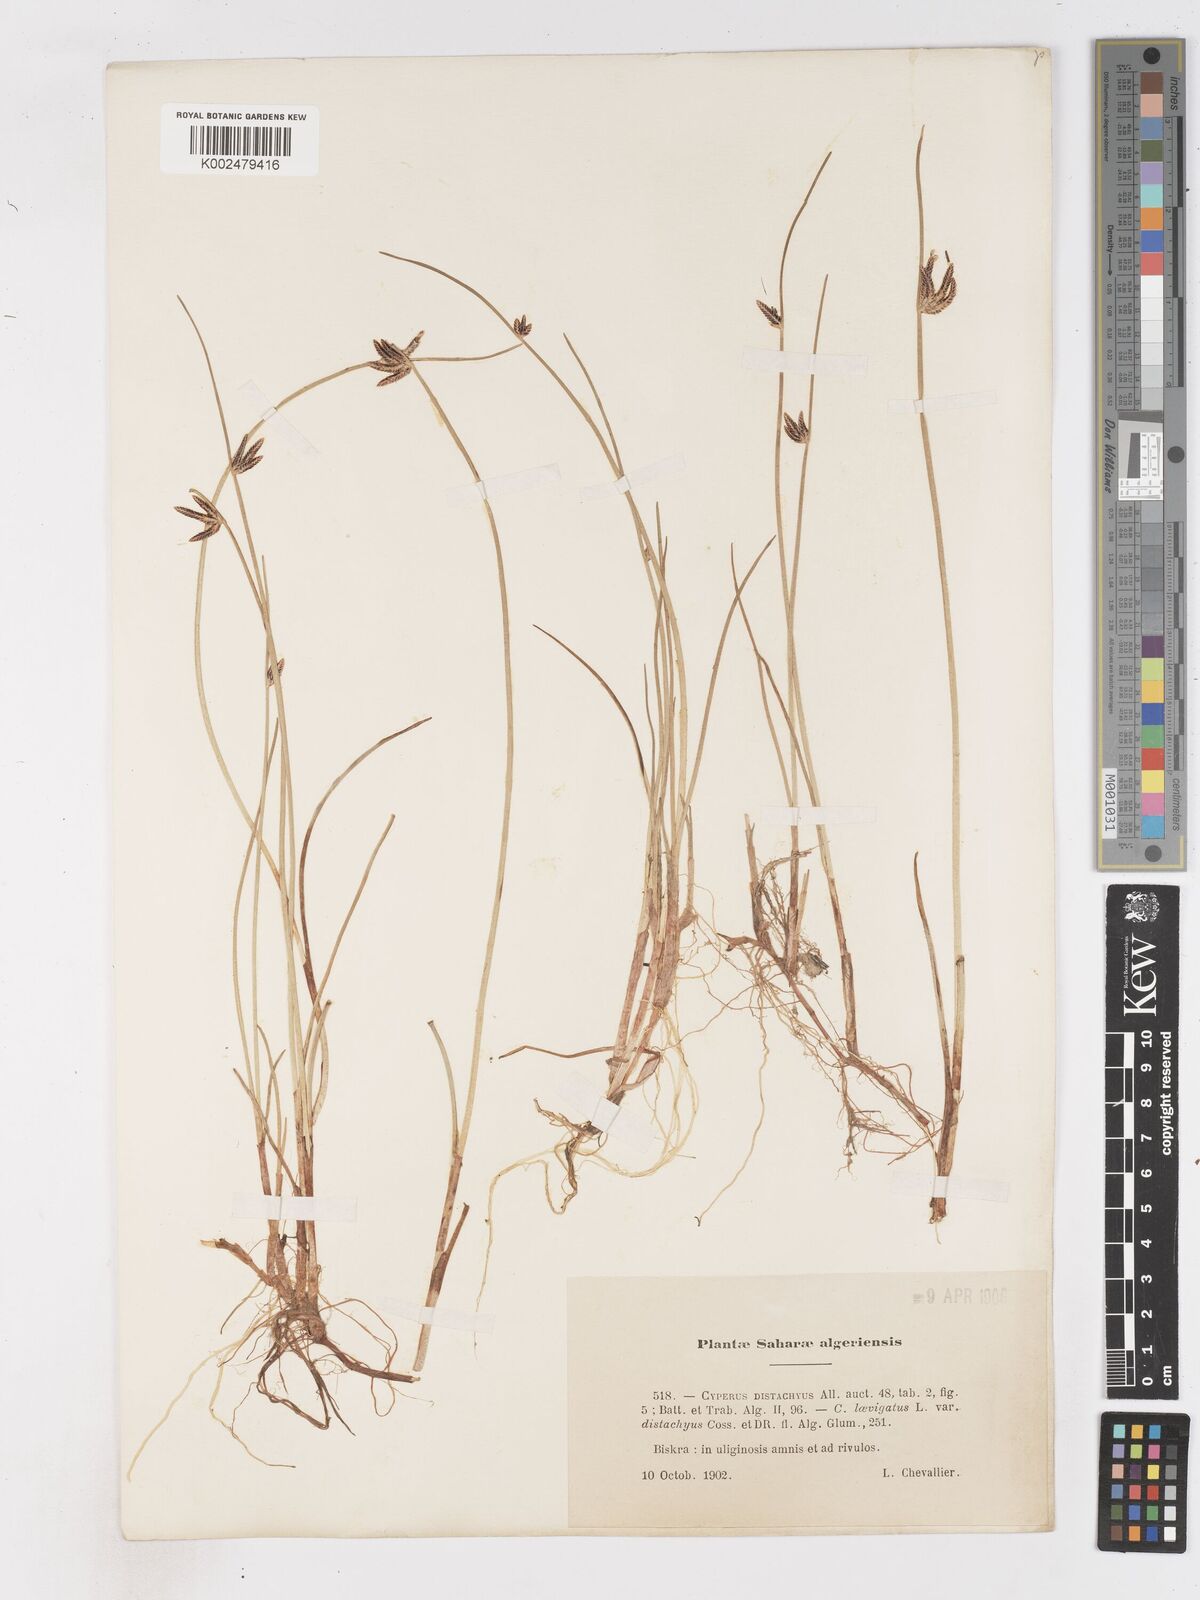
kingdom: Plantae
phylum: Tracheophyta
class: Liliopsida
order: Poales
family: Cyperaceae
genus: Cyperus
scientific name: Cyperus laevigatus
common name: Smooth flat sedge
